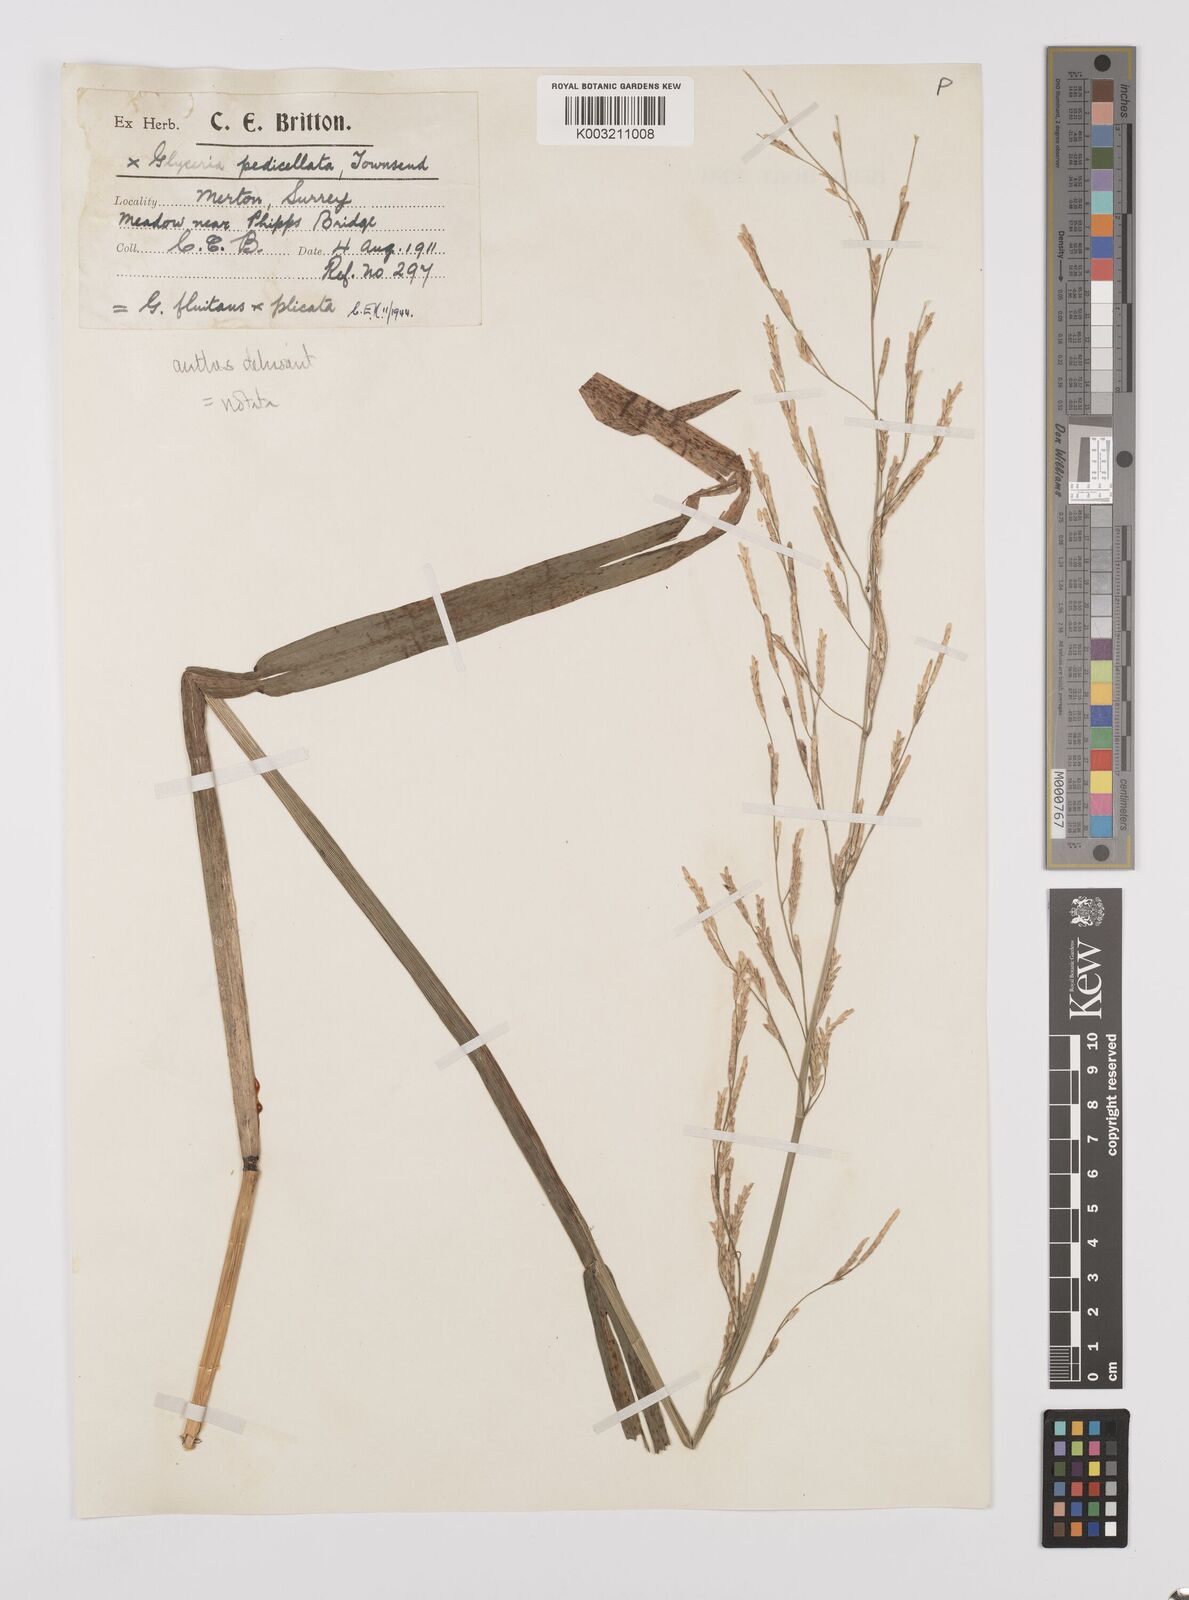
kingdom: Plantae
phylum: Tracheophyta
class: Liliopsida
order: Poales
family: Poaceae
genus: Glyceria
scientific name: Glyceria notata
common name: Plicate sweet-grass
